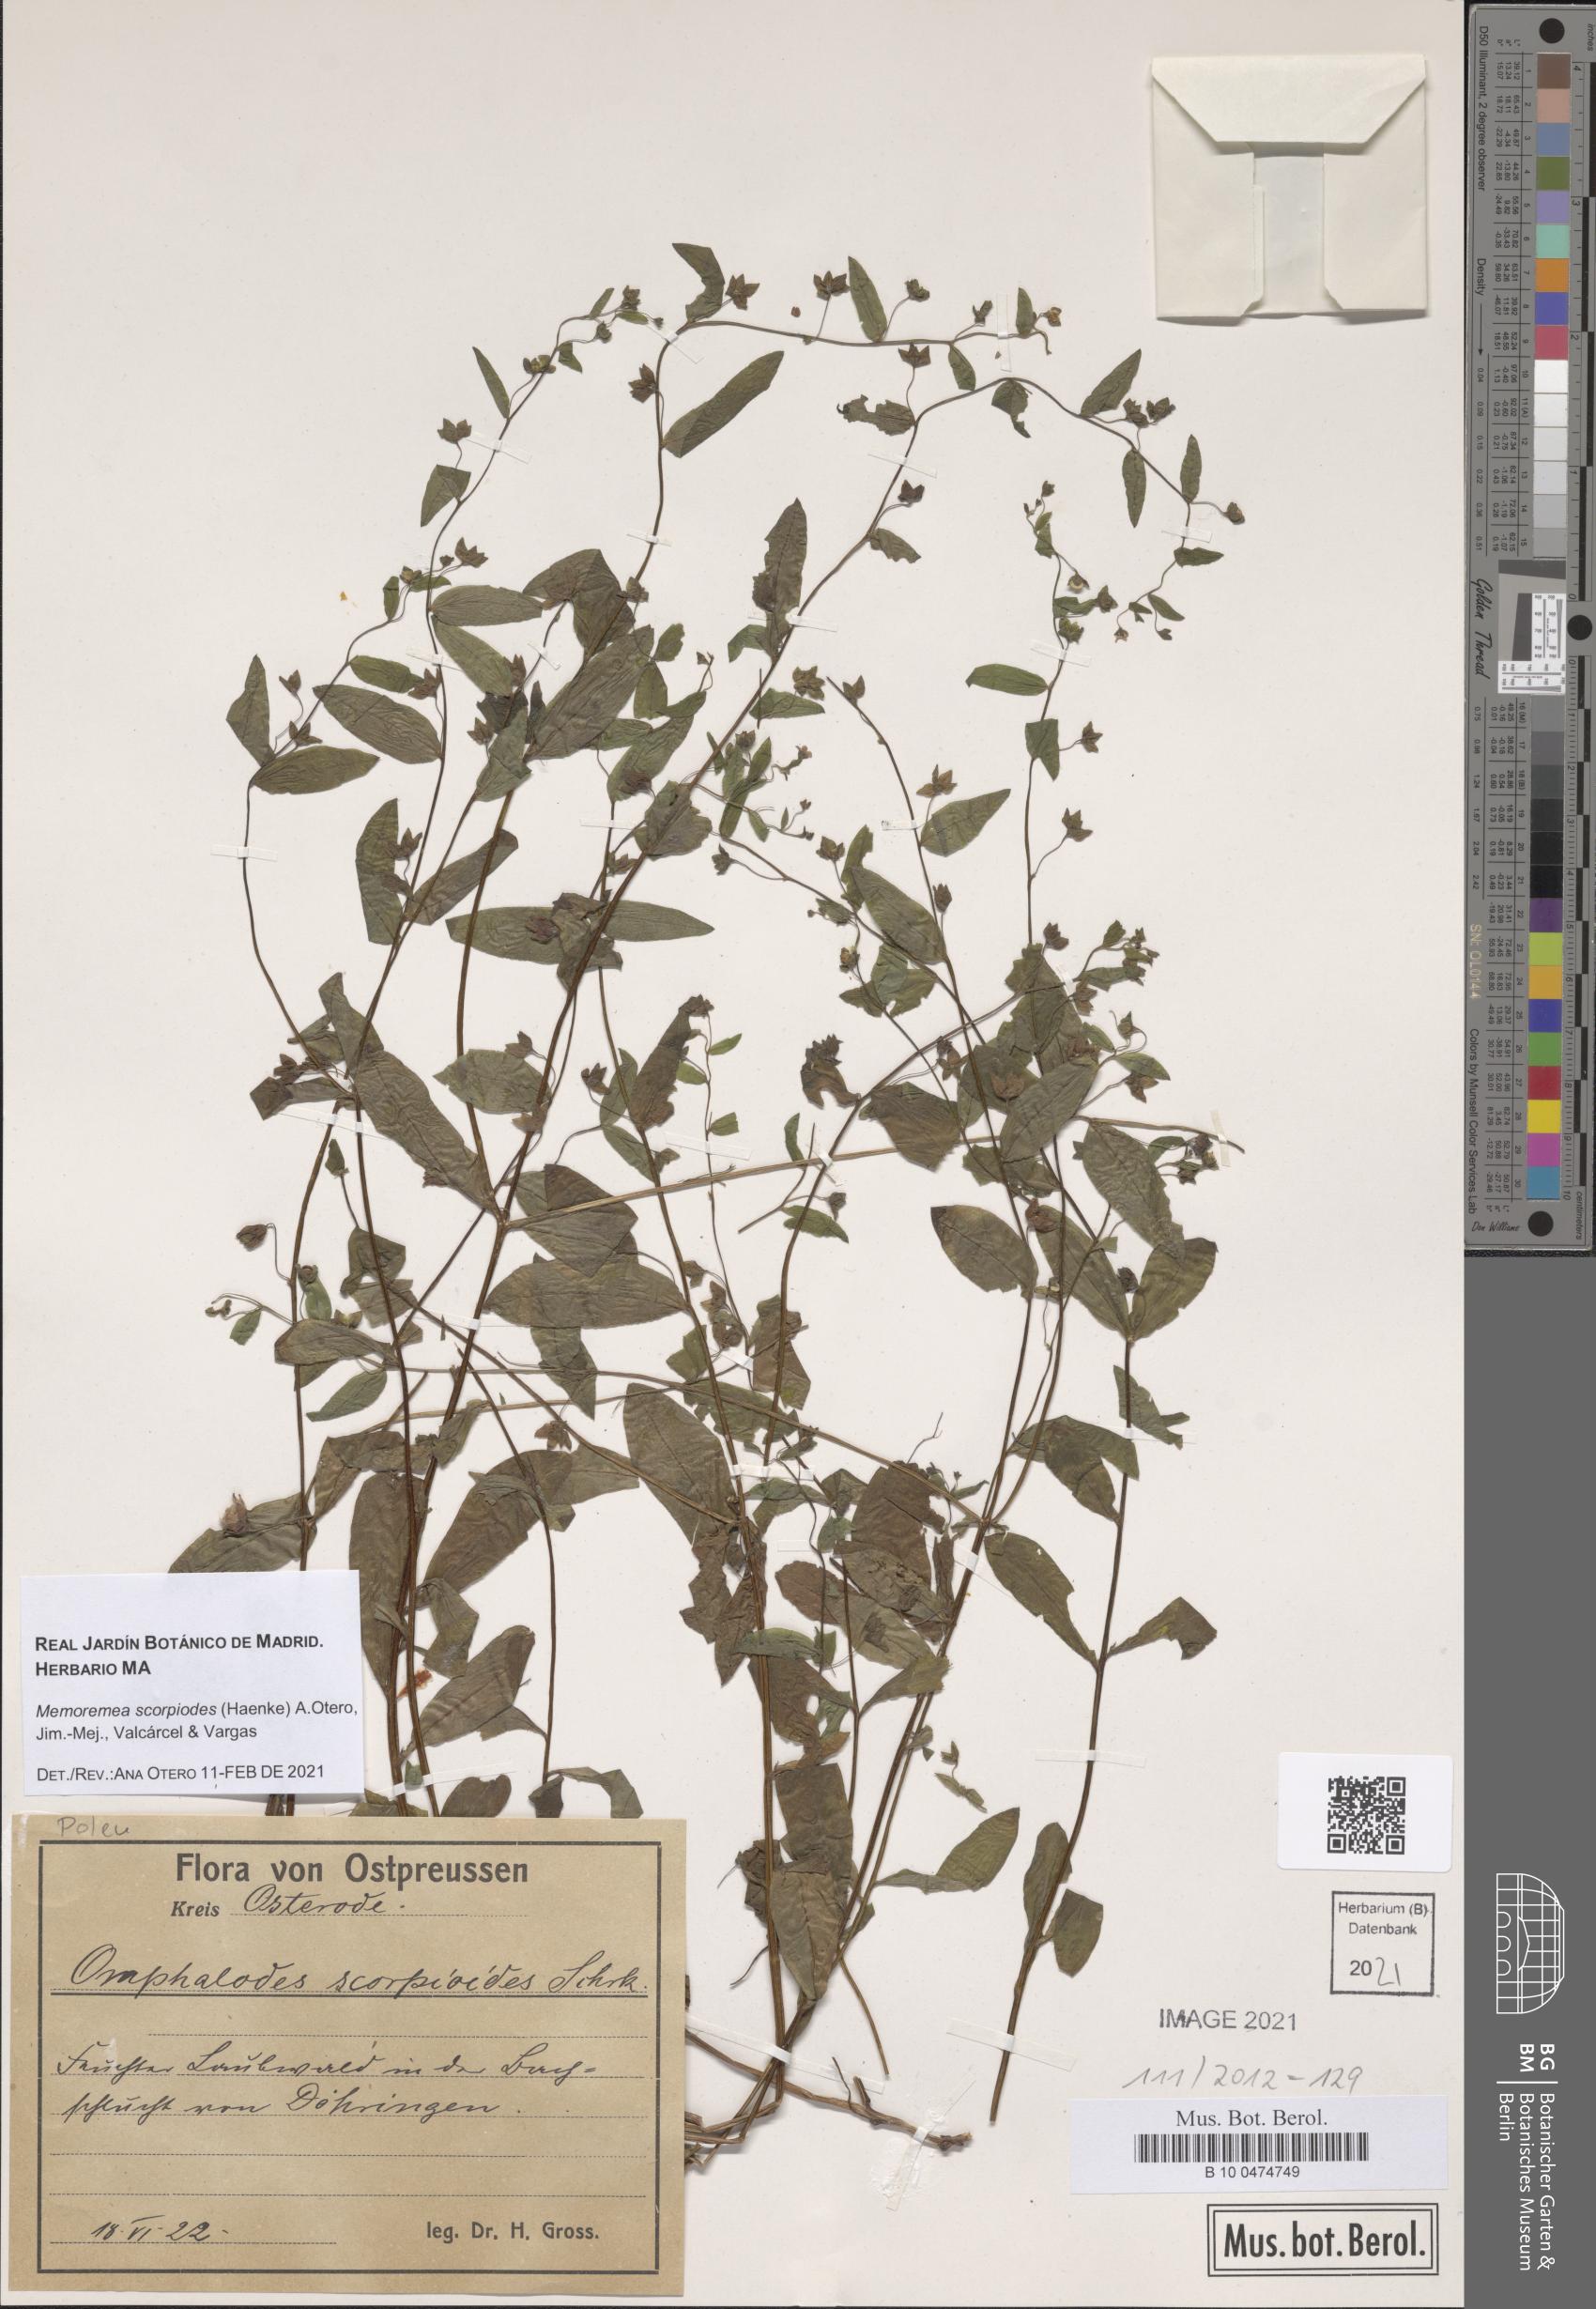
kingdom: Plantae
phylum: Tracheophyta
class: Magnoliopsida
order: Boraginales
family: Boraginaceae
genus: Memoremea
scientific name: Memoremea scorpioides
